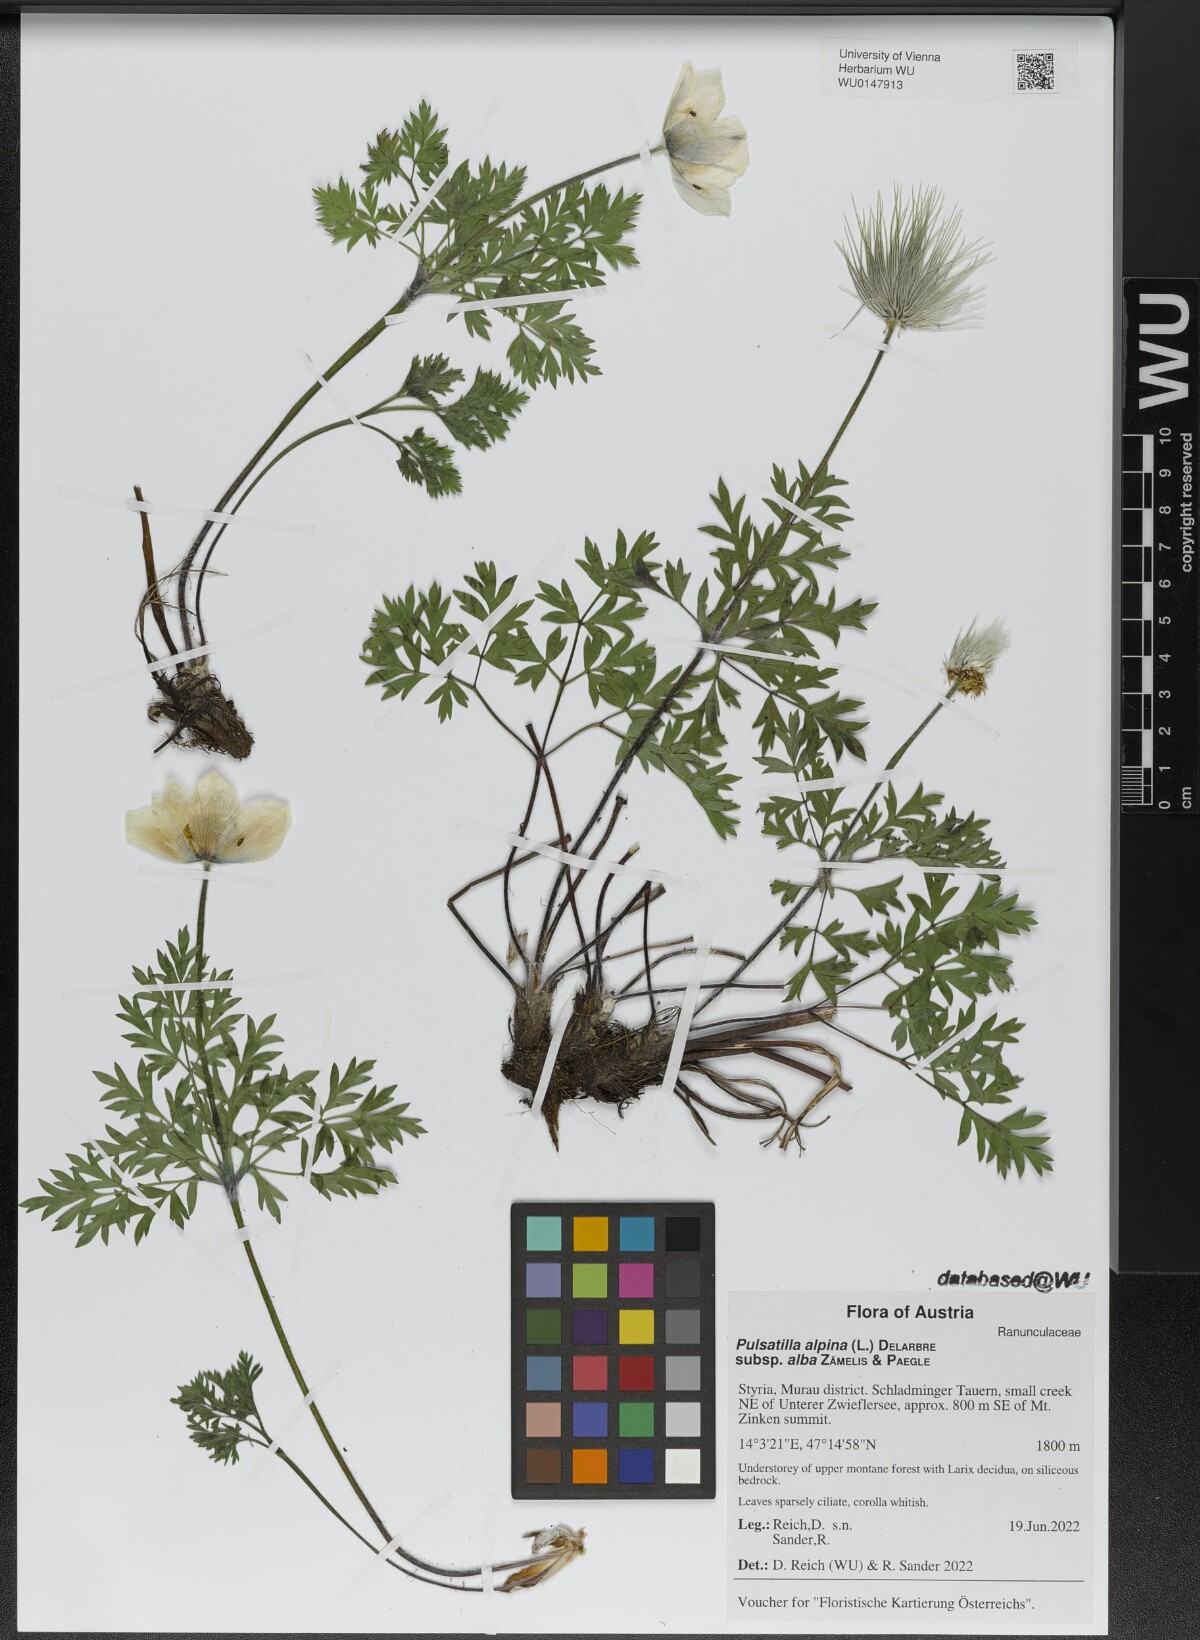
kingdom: Plantae
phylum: Tracheophyta
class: Magnoliopsida
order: Ranunculales
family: Ranunculaceae
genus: Pulsatilla
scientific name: Pulsatilla alpina
